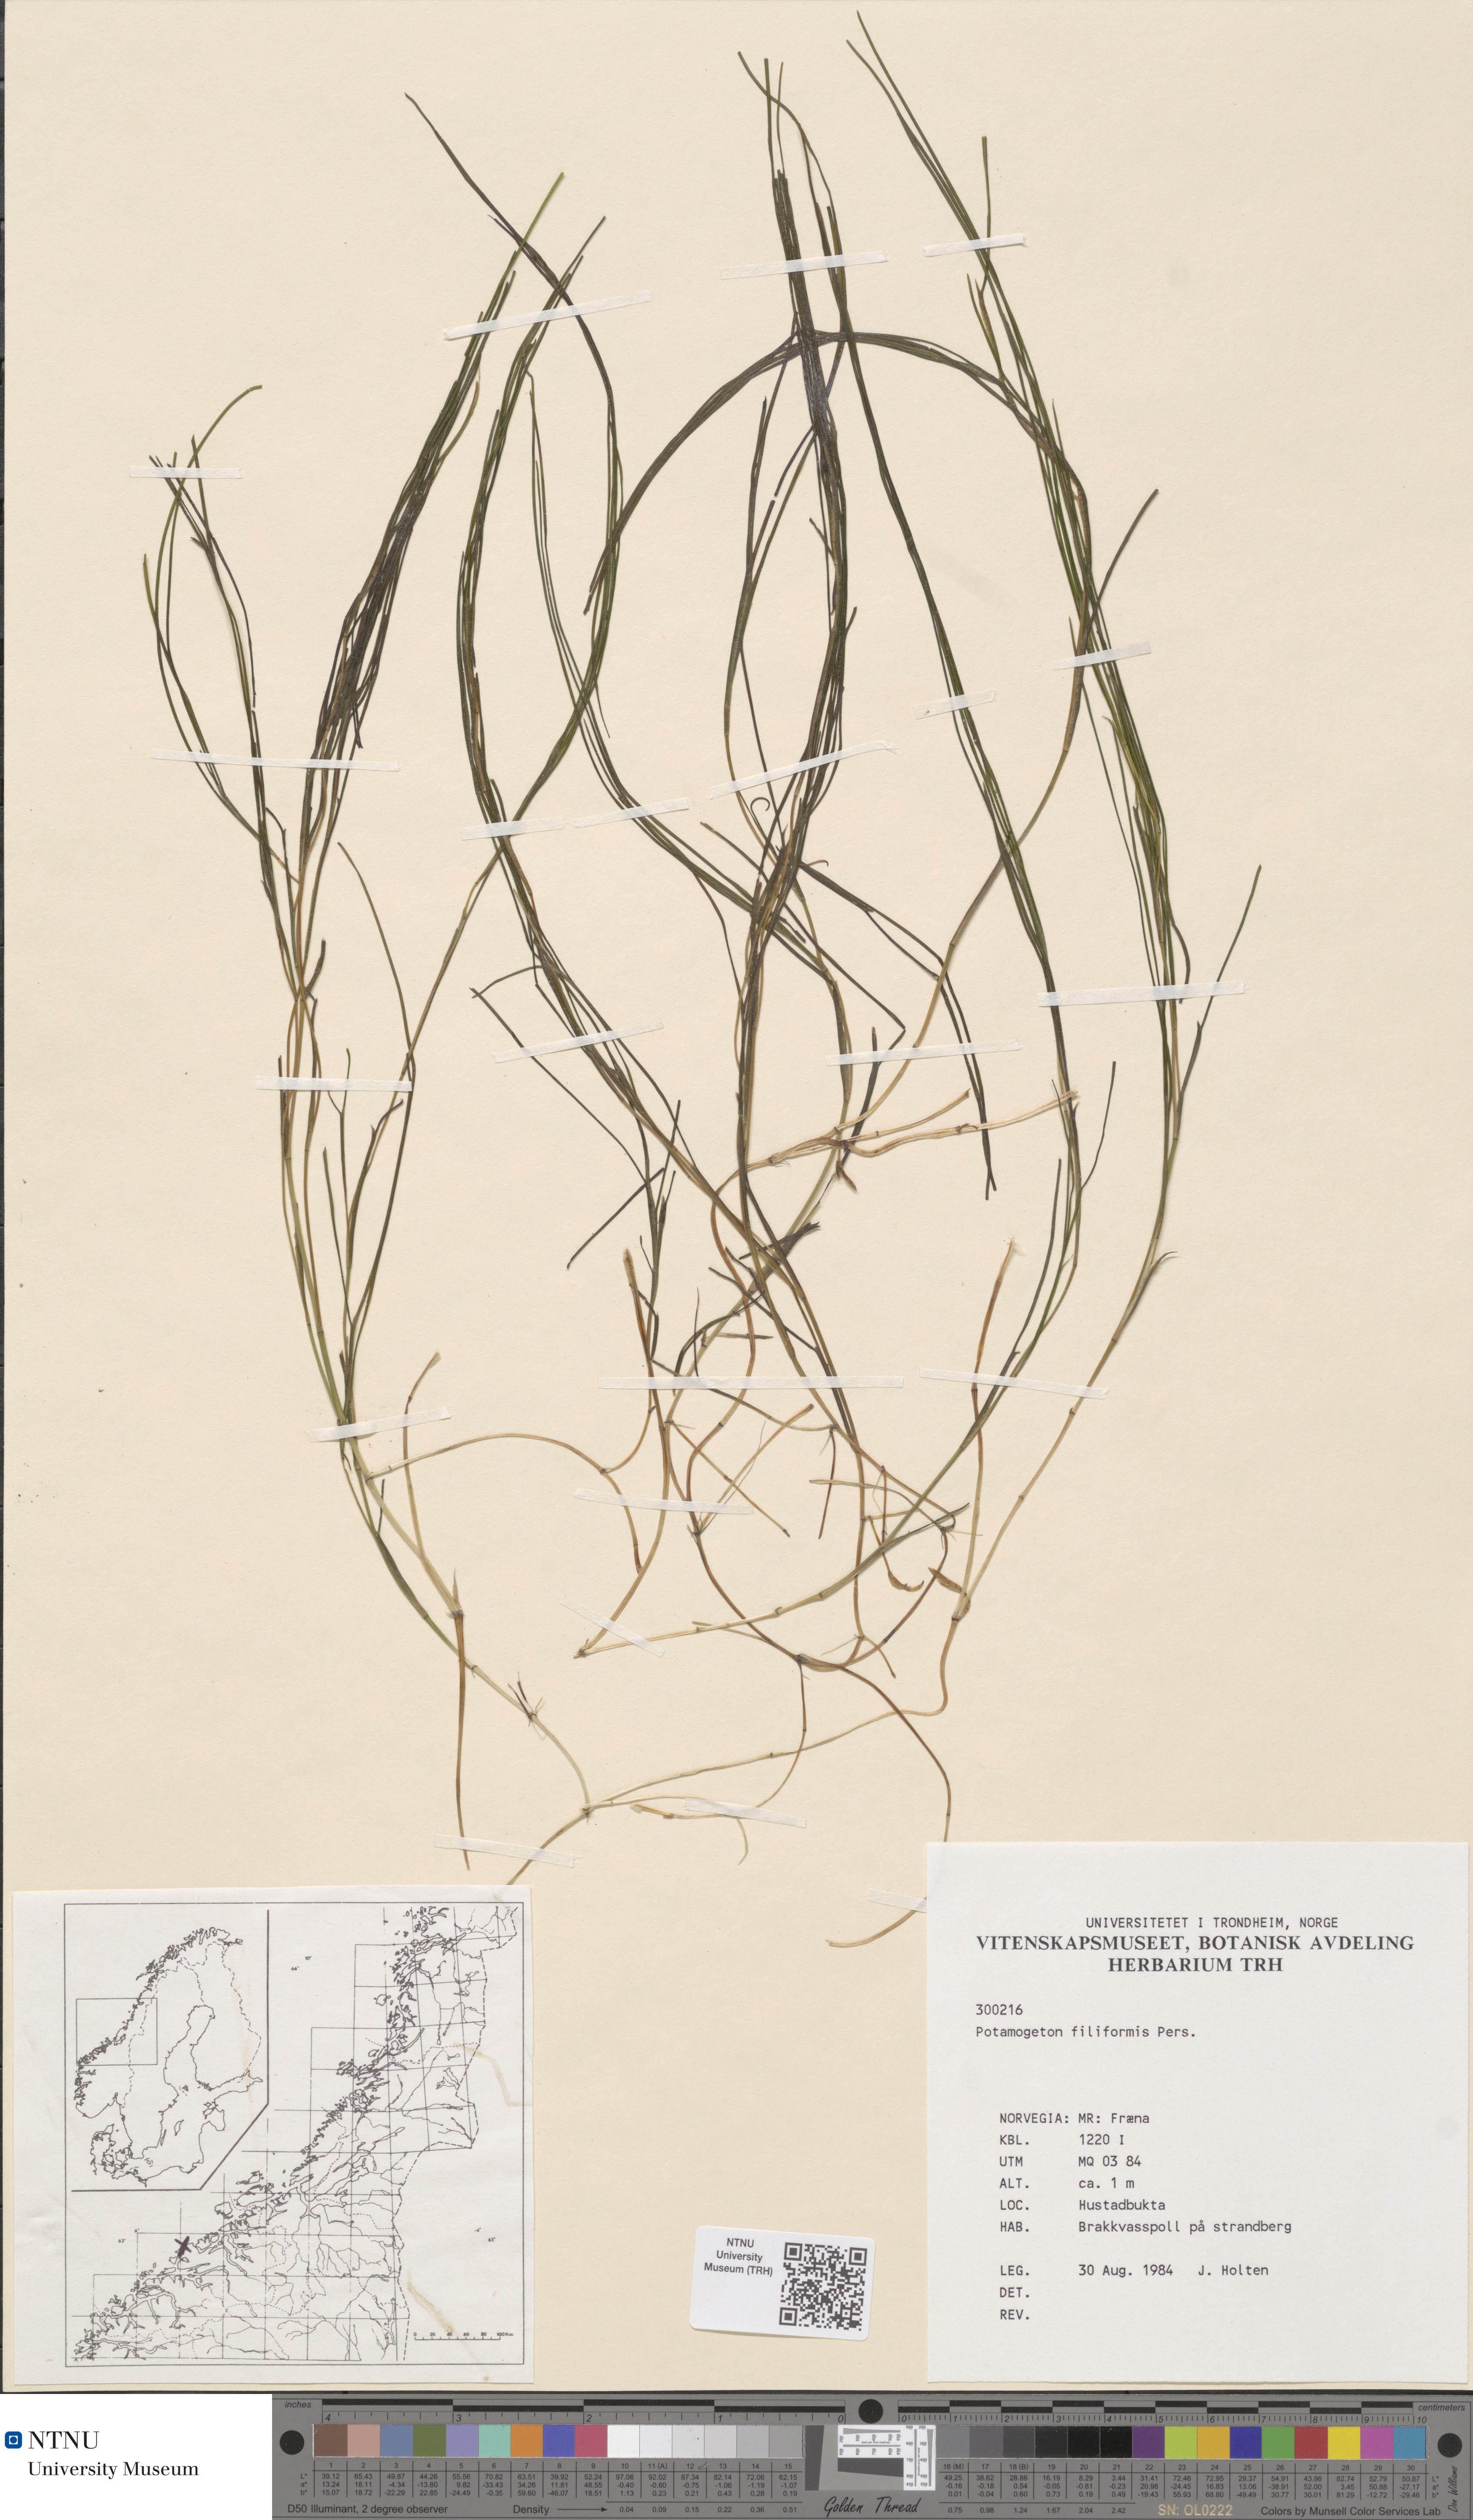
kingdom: Plantae
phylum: Tracheophyta
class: Liliopsida
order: Alismatales
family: Potamogetonaceae
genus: Stuckenia
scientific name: Stuckenia filiformis
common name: Alpine thread-leaved pondweed
